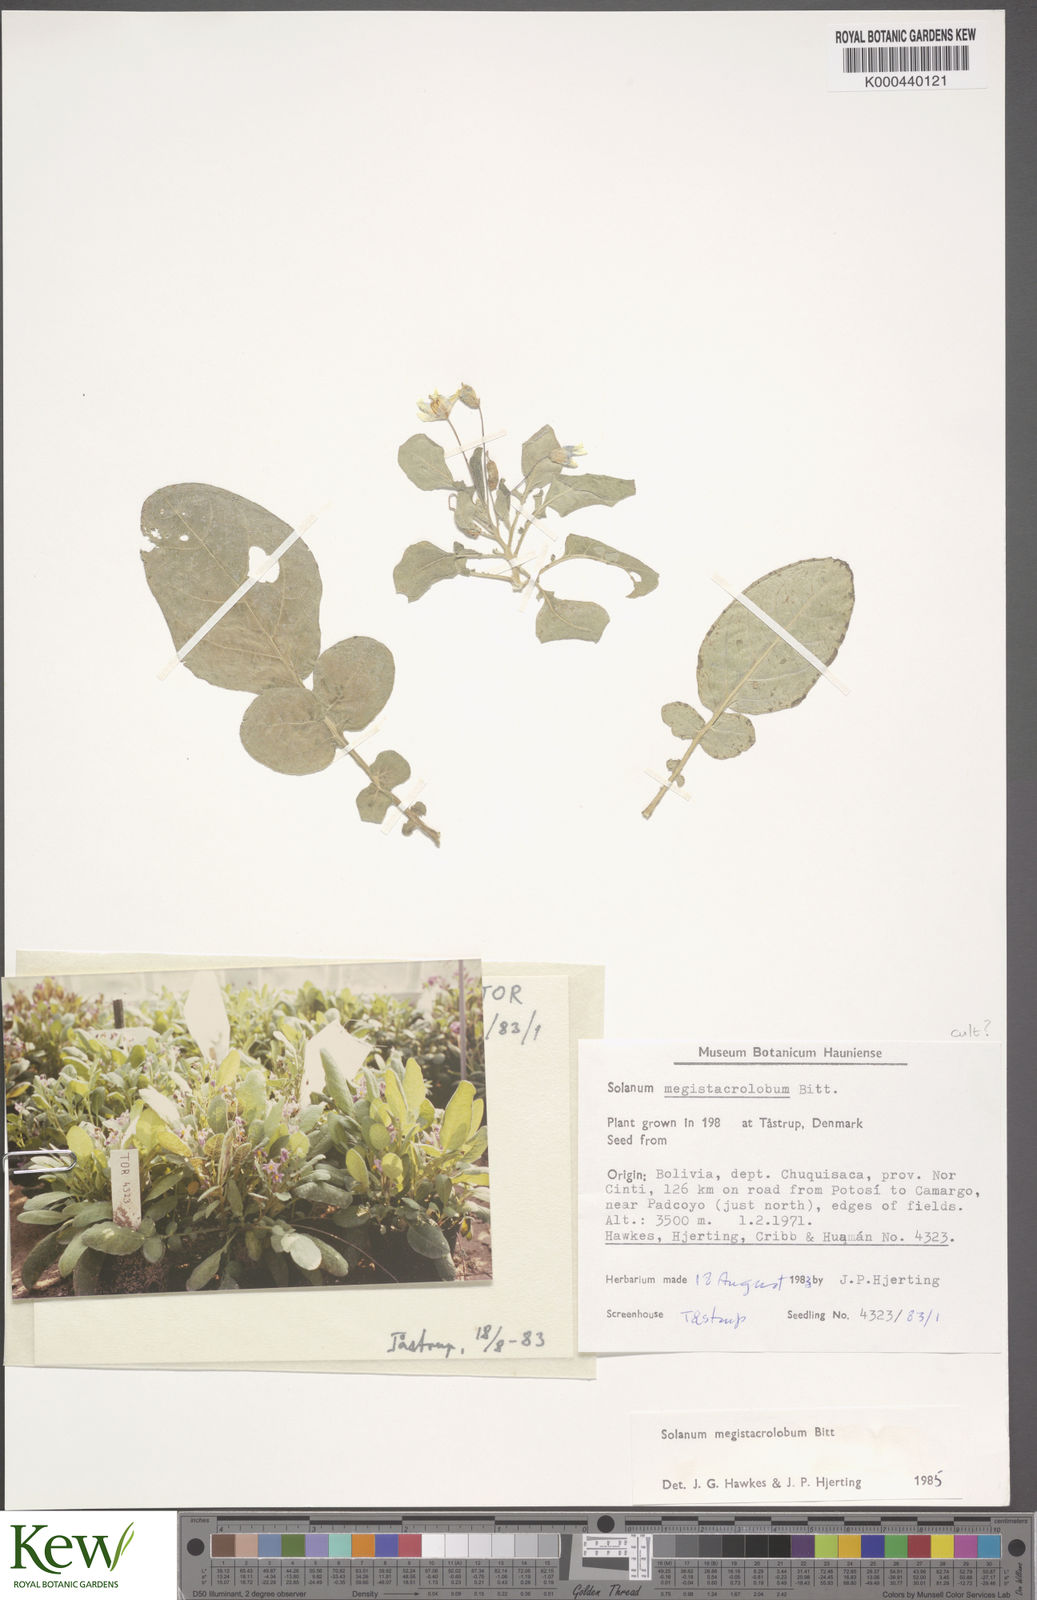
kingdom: Plantae
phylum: Tracheophyta
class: Magnoliopsida
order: Solanales
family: Solanaceae
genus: Solanum
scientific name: Solanum boliviense
